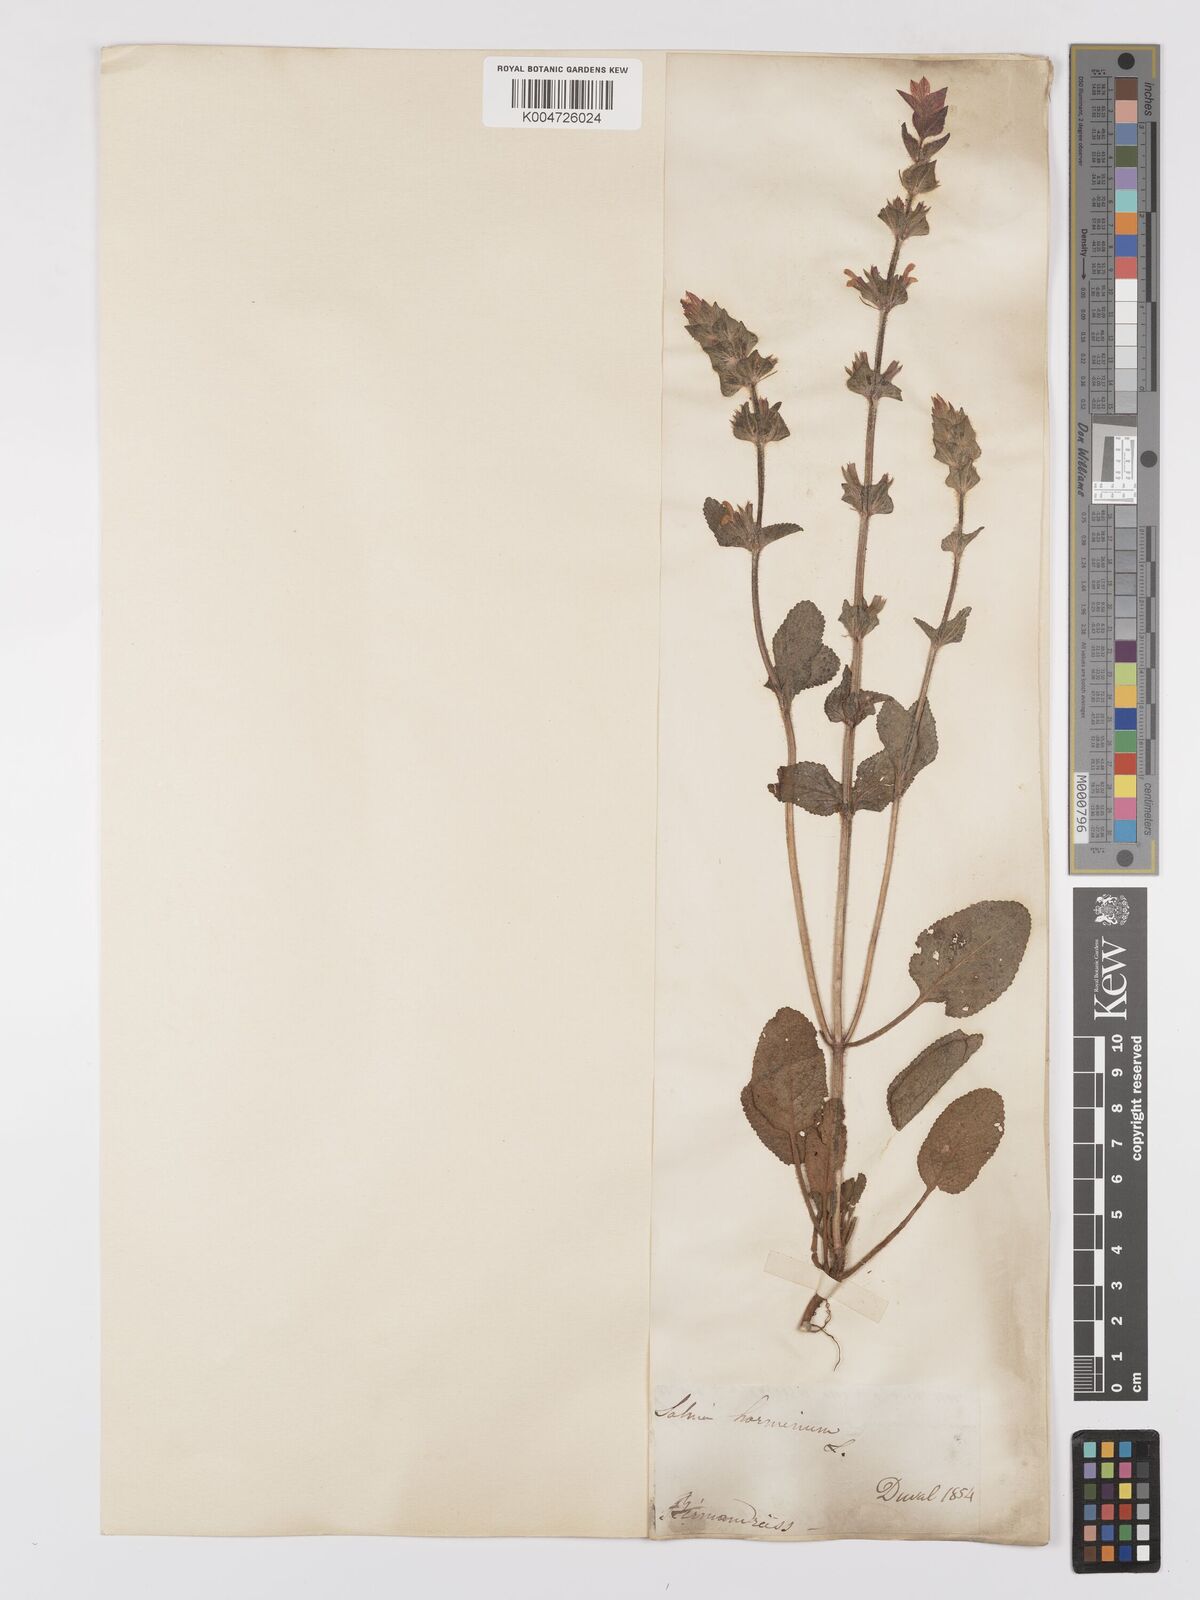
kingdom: Plantae
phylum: Tracheophyta
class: Magnoliopsida
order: Lamiales
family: Lamiaceae
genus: Salvia
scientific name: Salvia viridis
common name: Annual clary
